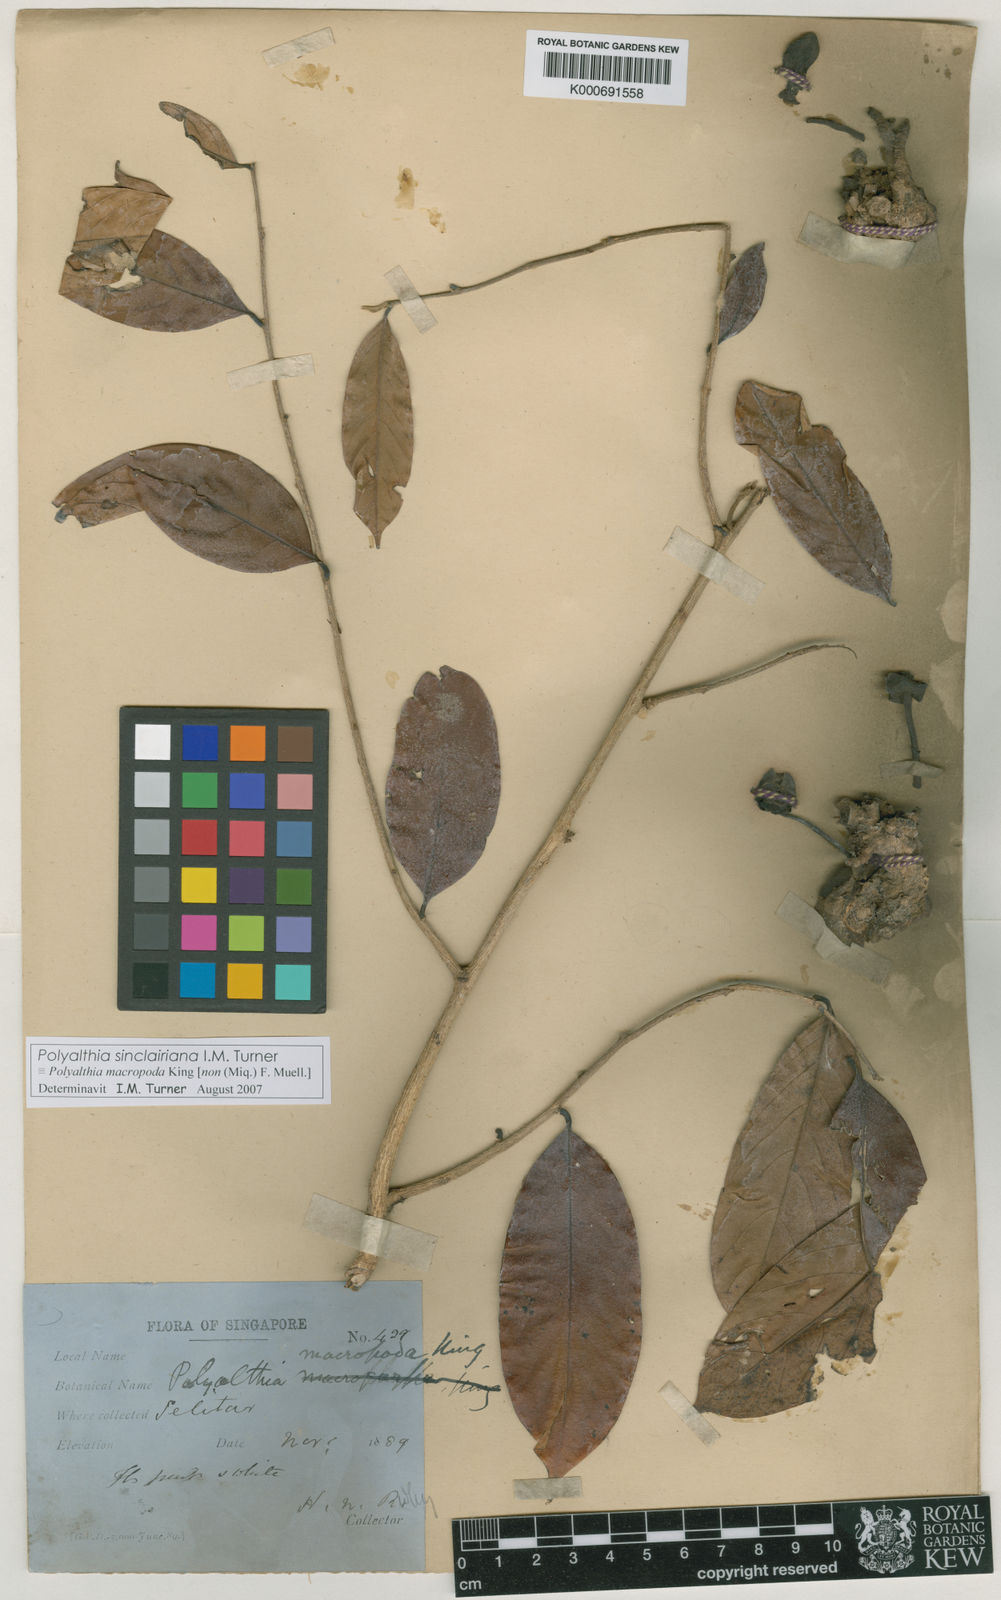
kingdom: Plantae
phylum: Tracheophyta
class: Magnoliopsida
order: Magnoliales
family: Annonaceae
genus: Polyalthia
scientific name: Polyalthia sinclairiana
